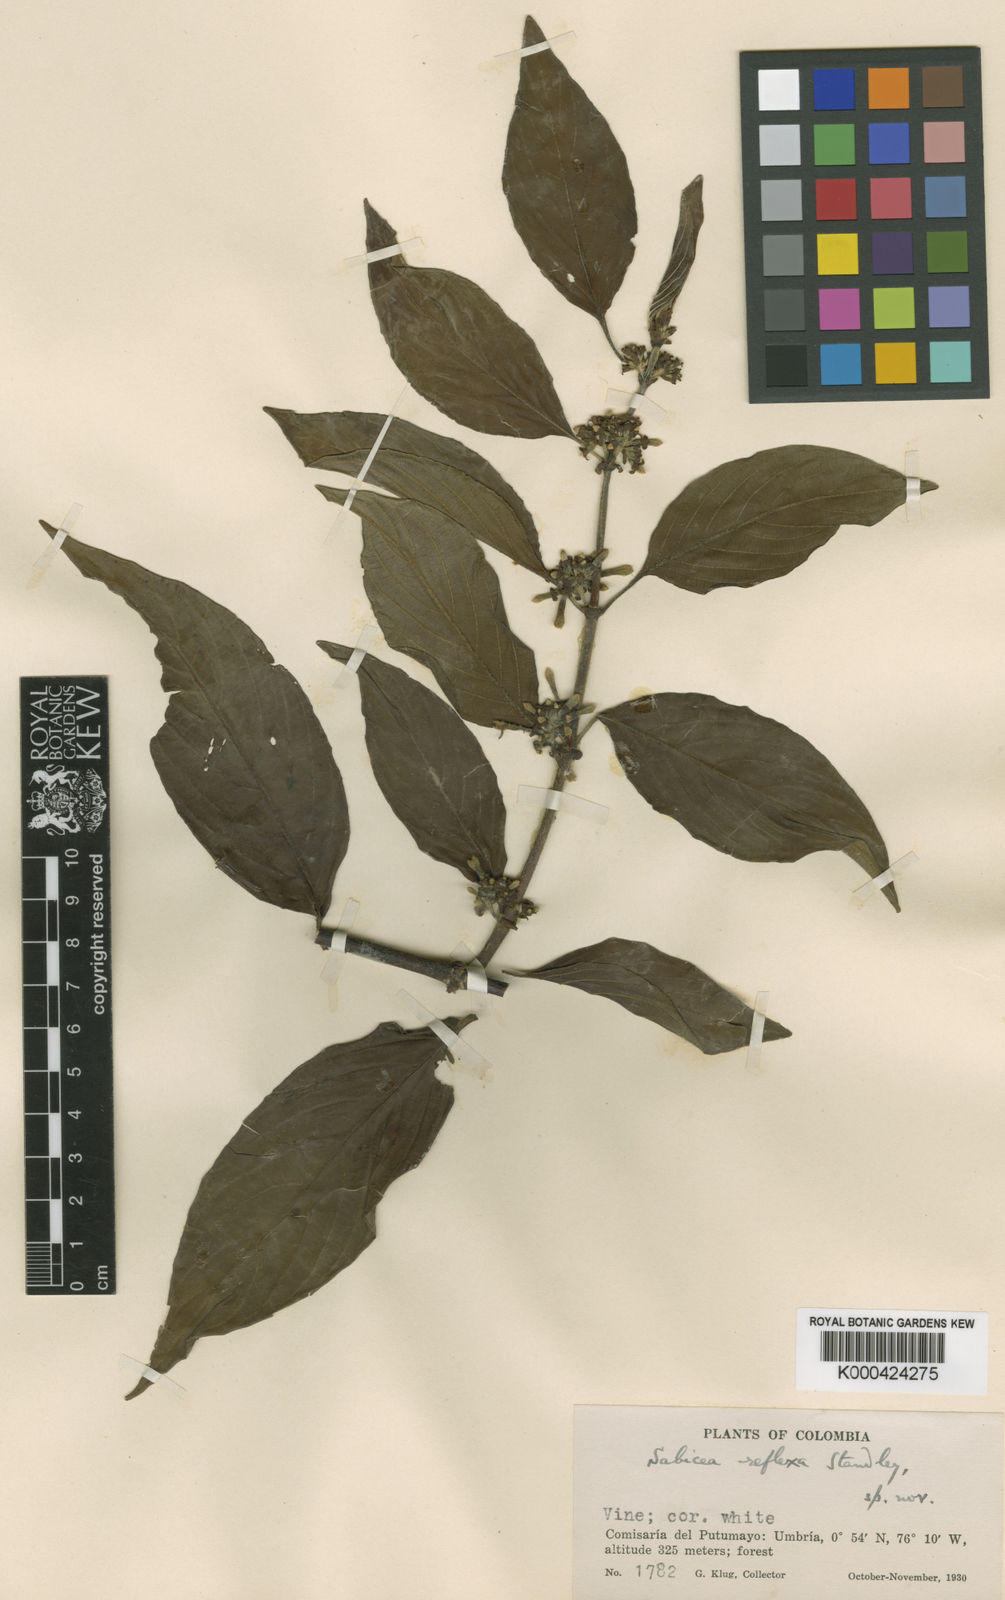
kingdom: Plantae
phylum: Tracheophyta
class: Magnoliopsida
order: Gentianales
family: Rubiaceae
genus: Sabicea
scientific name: Sabicea panamensis
